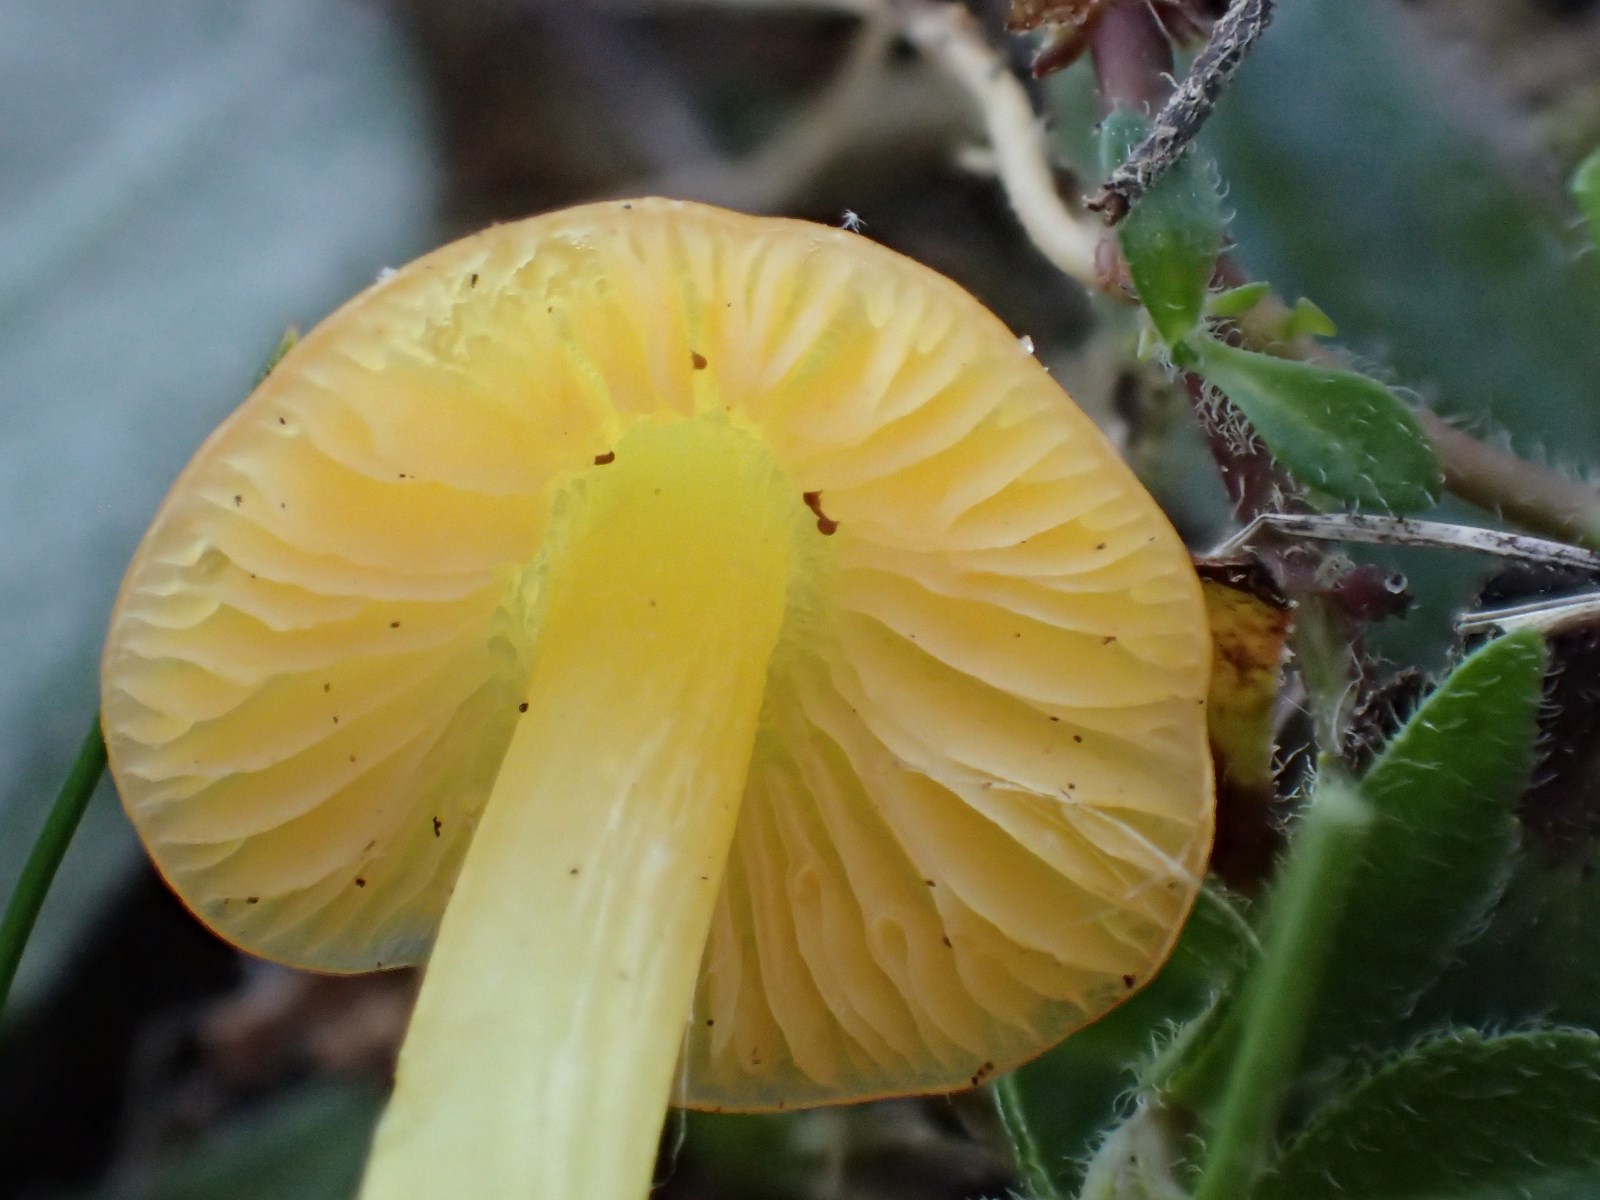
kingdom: Fungi
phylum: Basidiomycota
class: Agaricomycetes
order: Agaricales
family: Hygrophoraceae
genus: Hygrocybe
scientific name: Hygrocybe
